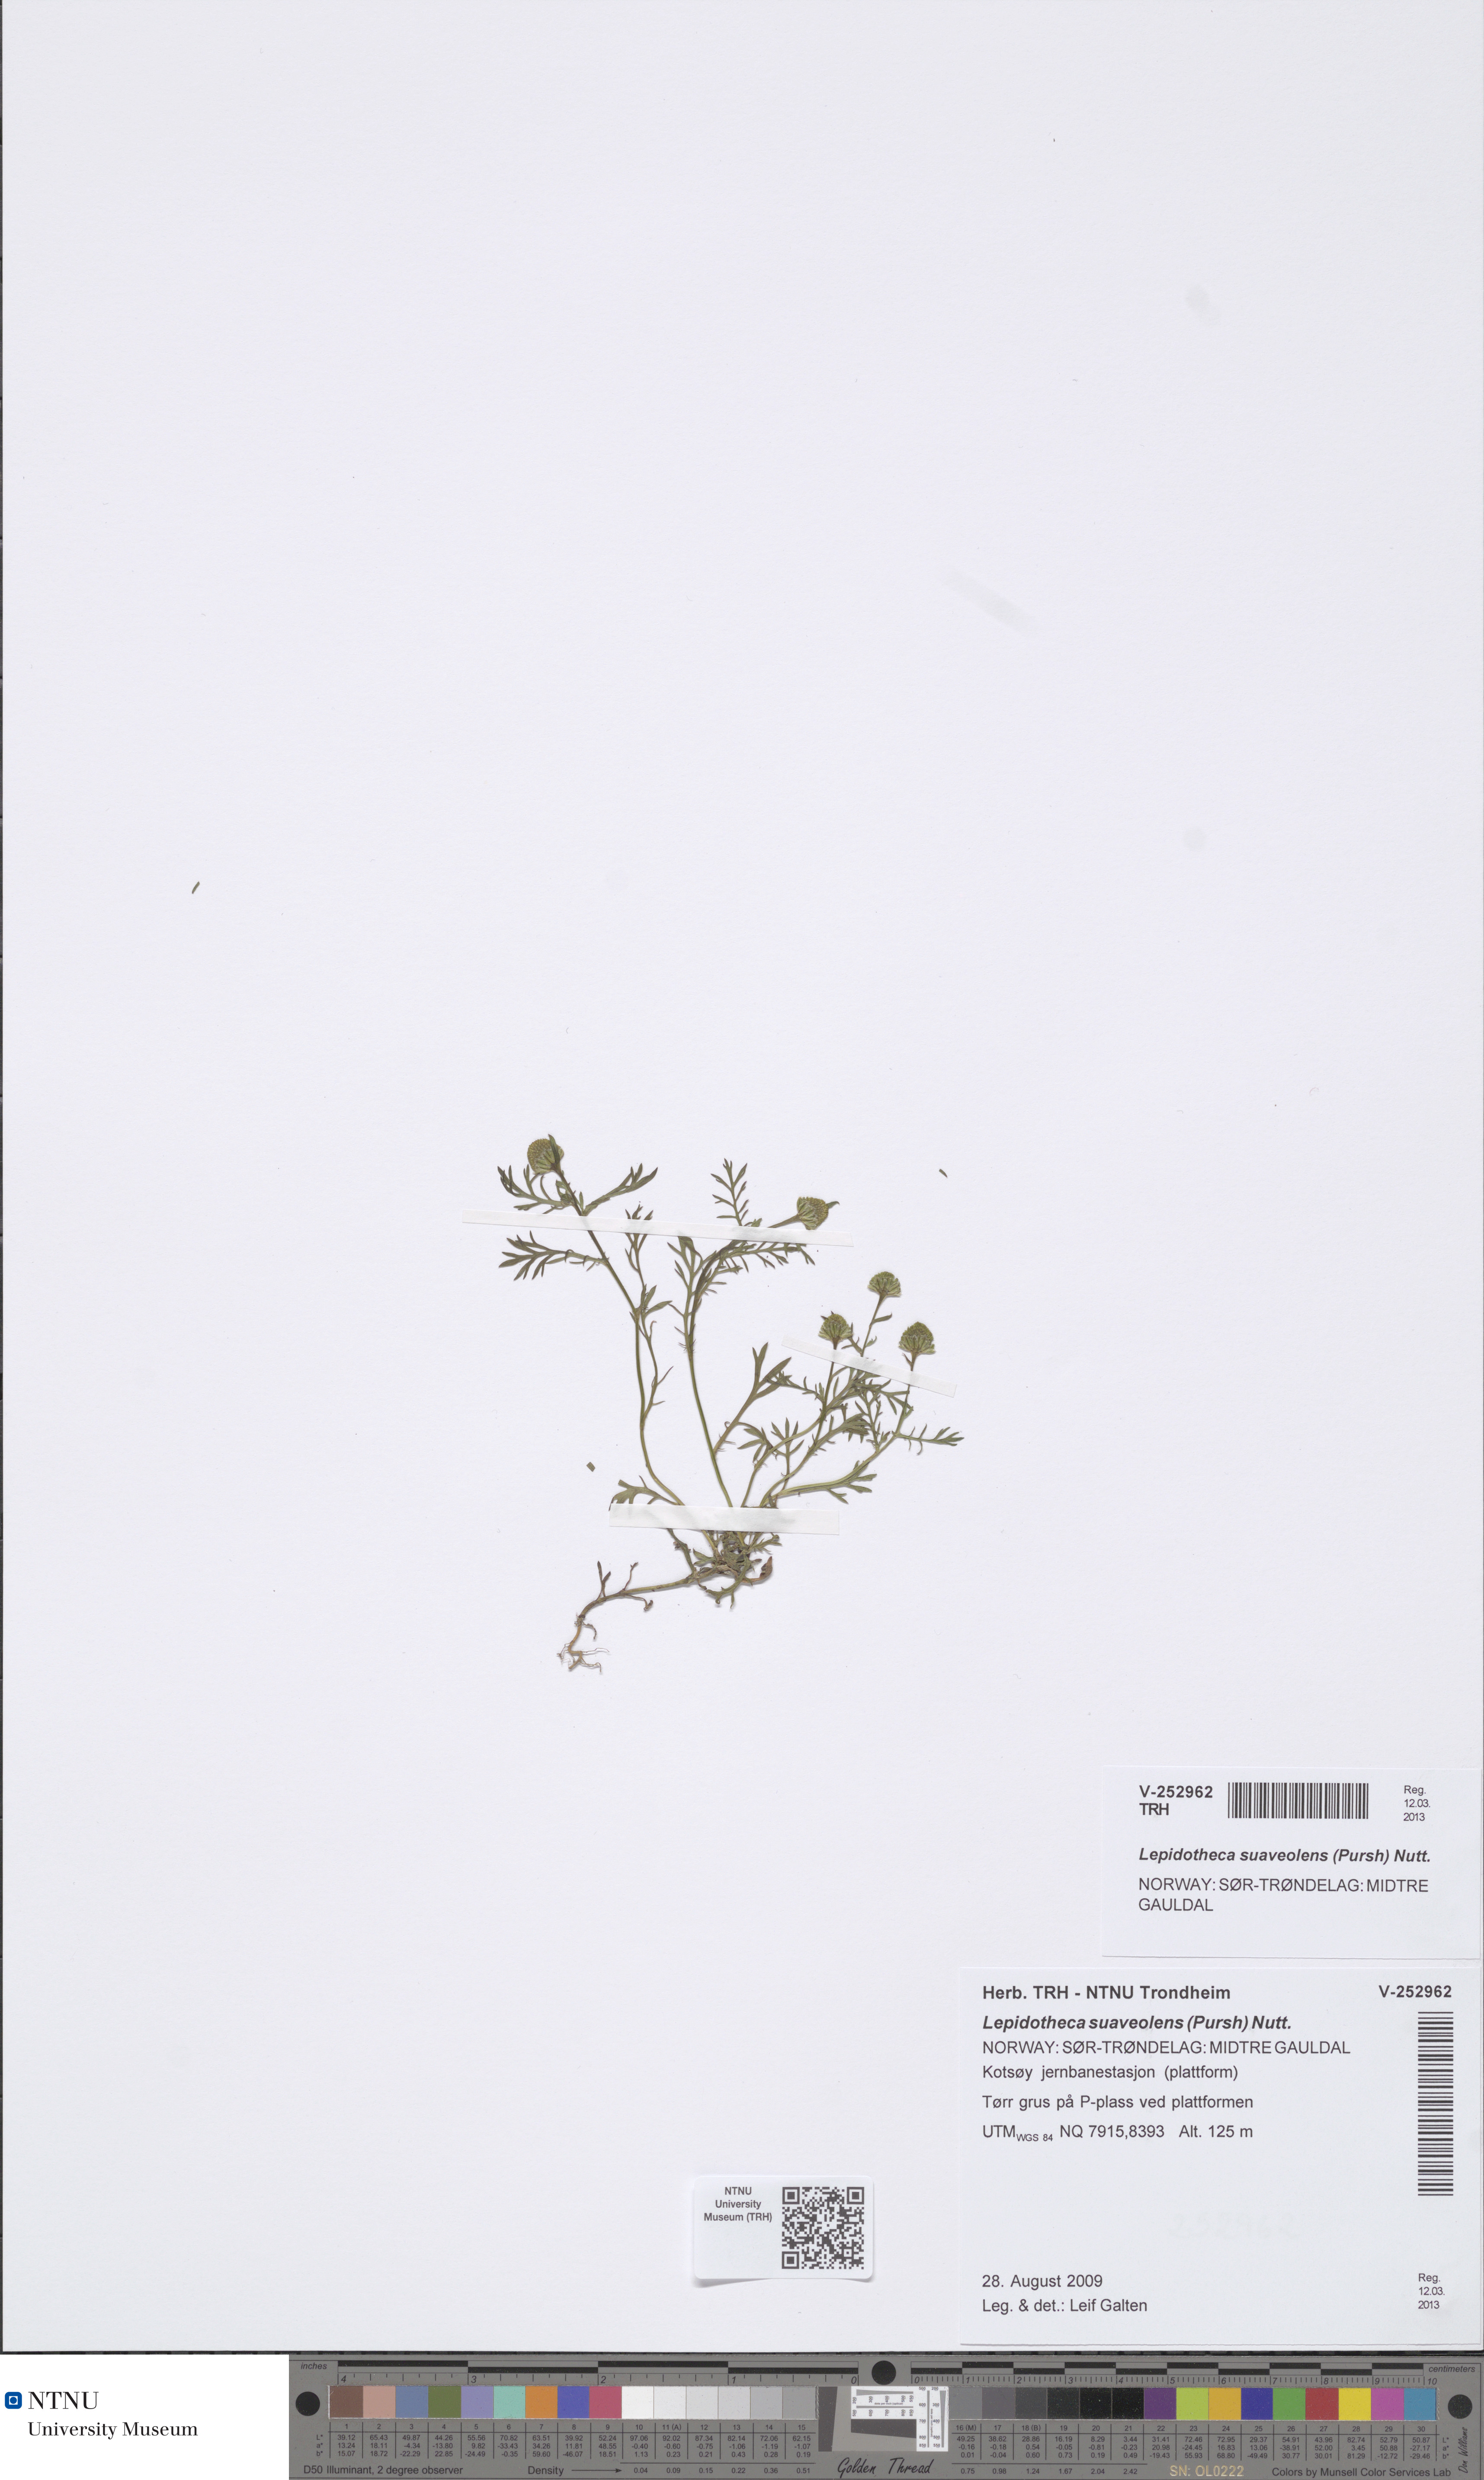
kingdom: Plantae
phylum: Tracheophyta
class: Magnoliopsida
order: Asterales
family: Asteraceae
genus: Matricaria
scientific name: Matricaria discoidea
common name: Disc mayweed
